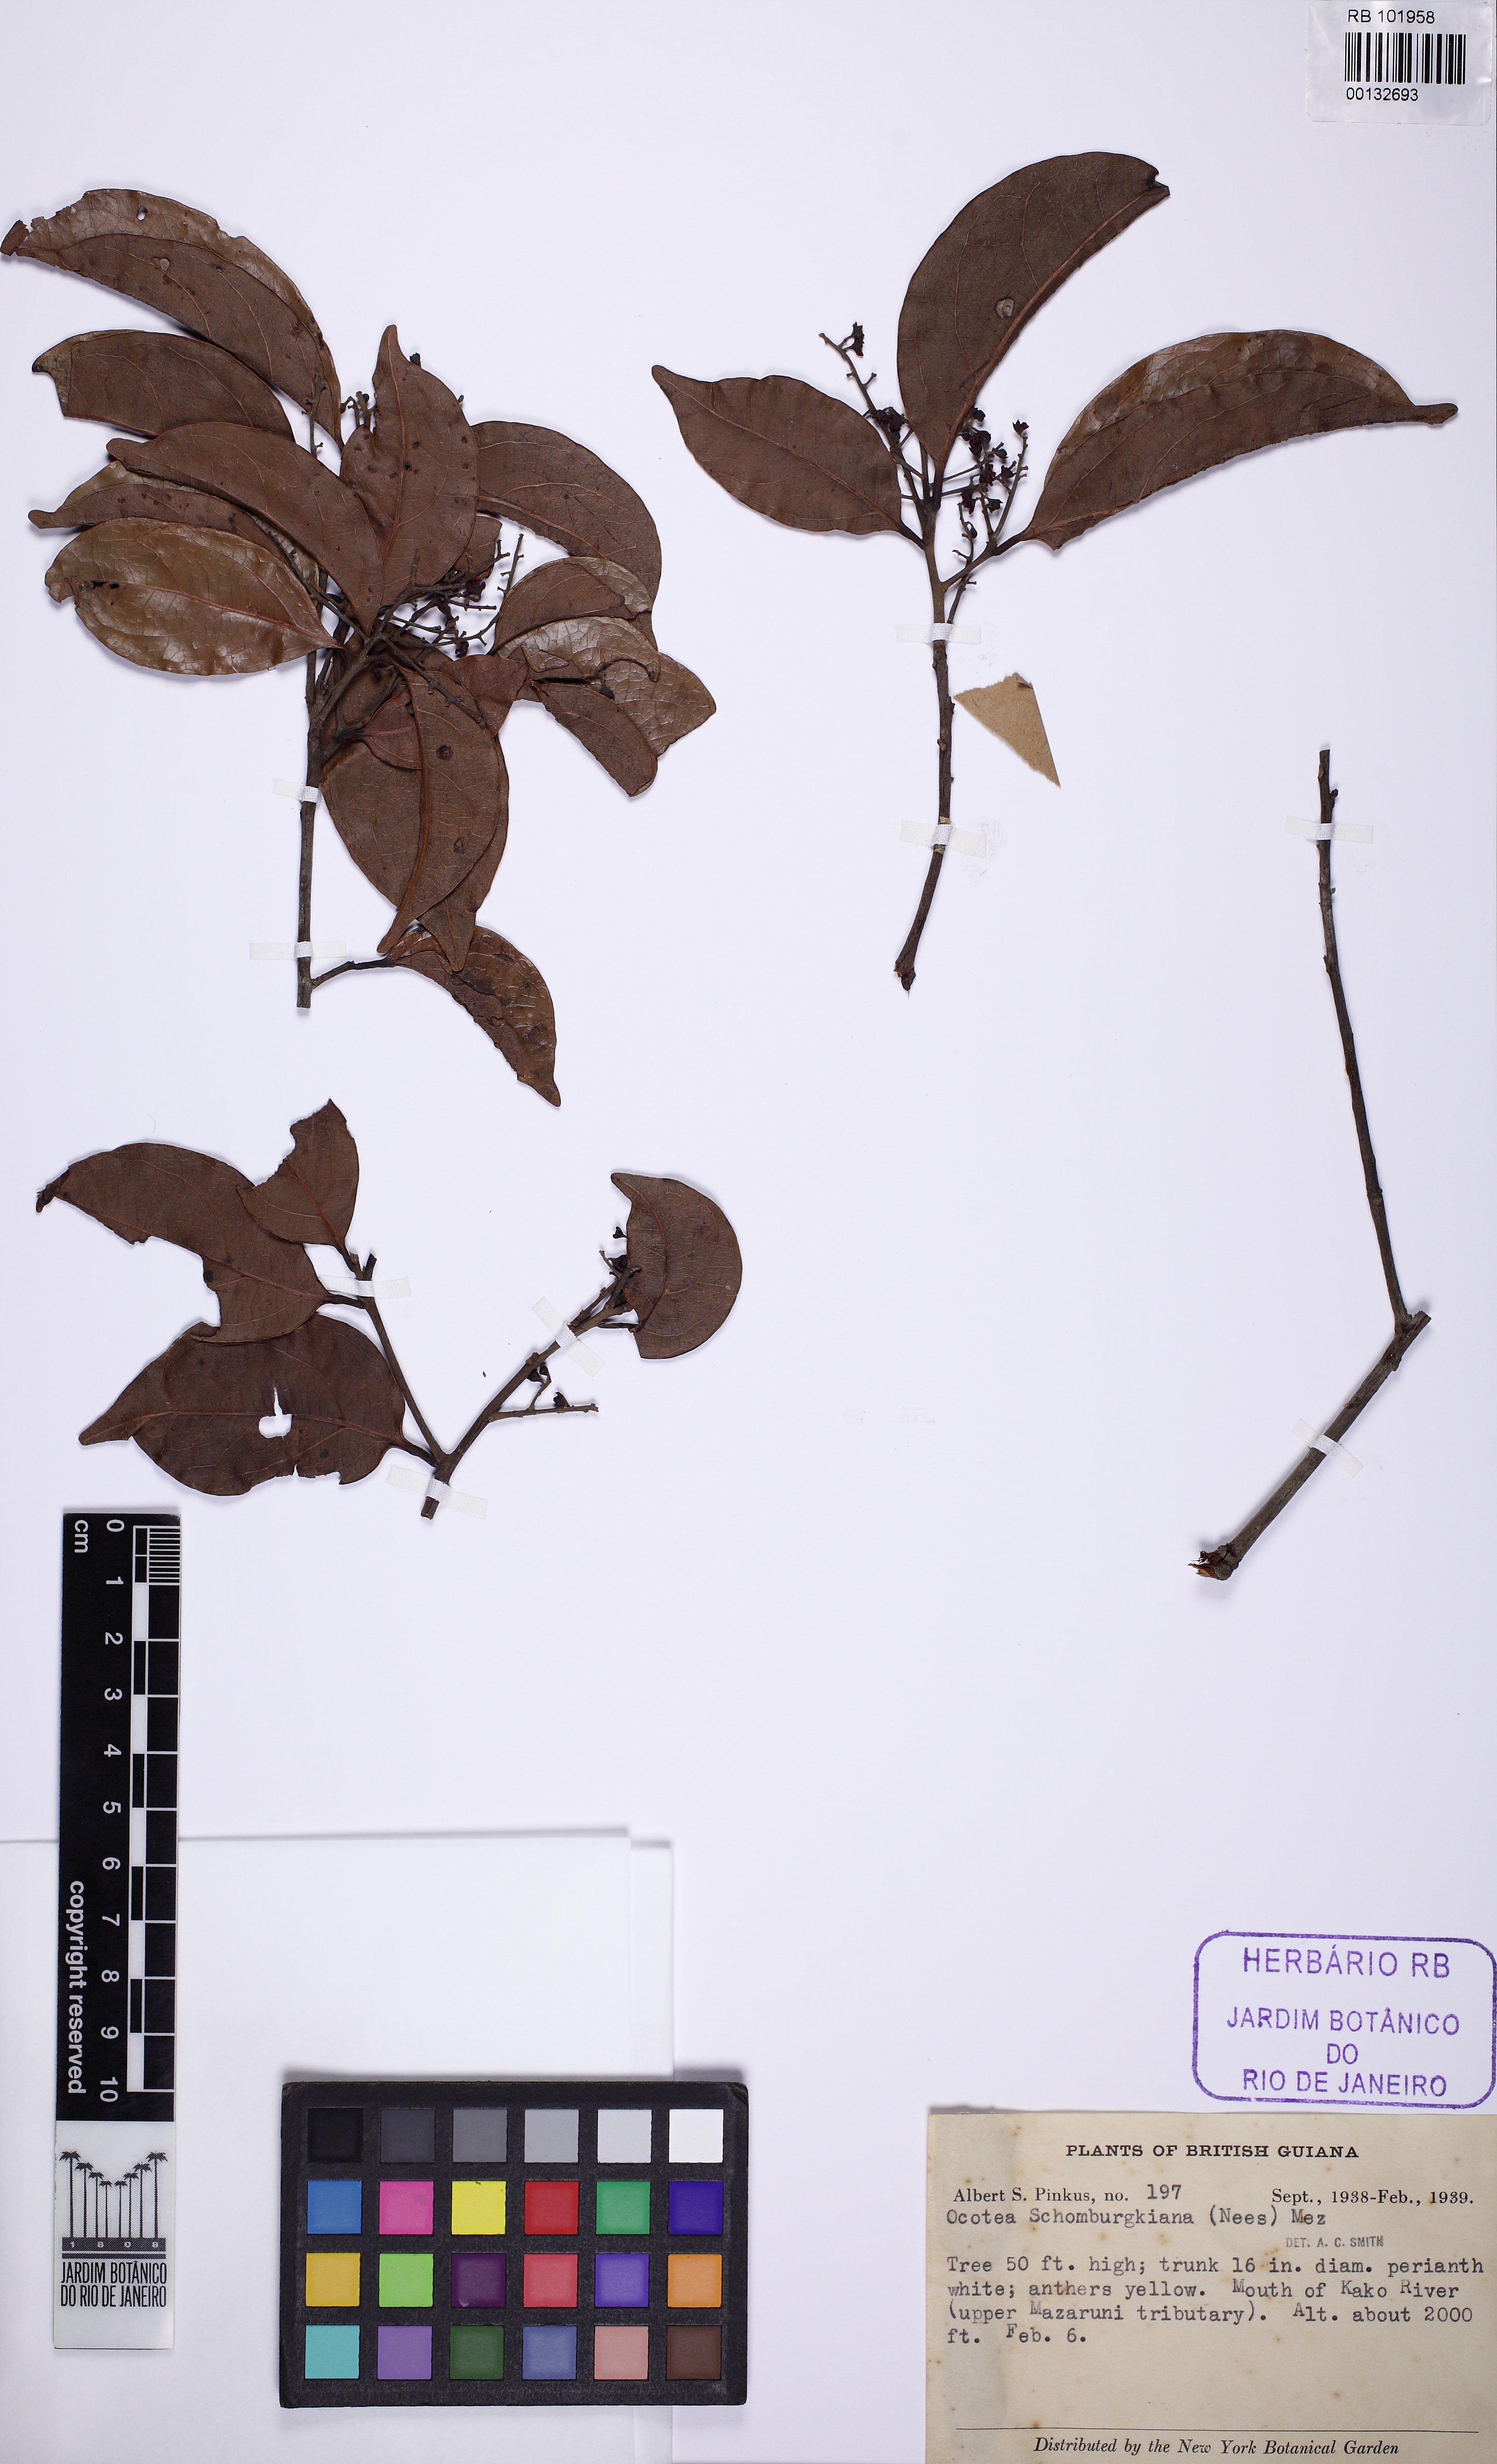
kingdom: Plantae
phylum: Tracheophyta
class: Magnoliopsida
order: Laurales
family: Lauraceae
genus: Ocotea
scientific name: Ocotea schomburgkiana
